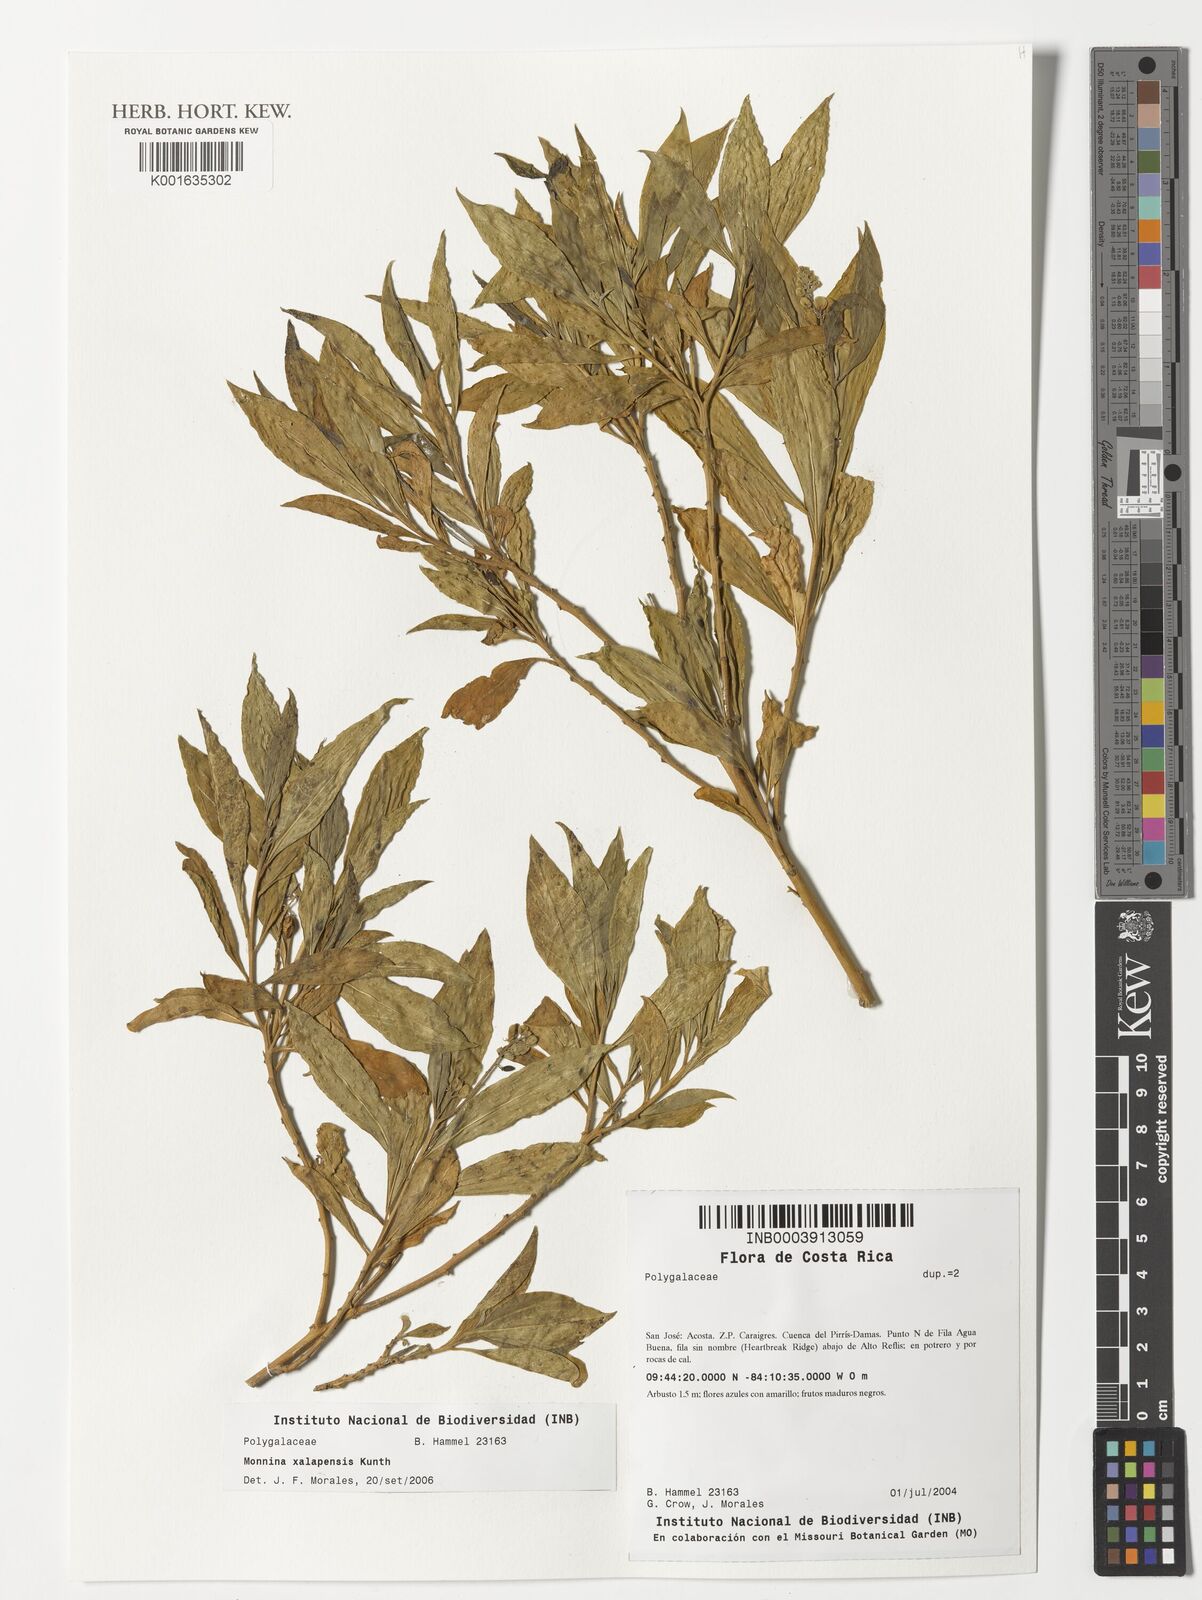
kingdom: Plantae
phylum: Tracheophyta
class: Magnoliopsida
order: Fabales
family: Polygalaceae
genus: Monnina
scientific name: Monnina xalapensis
